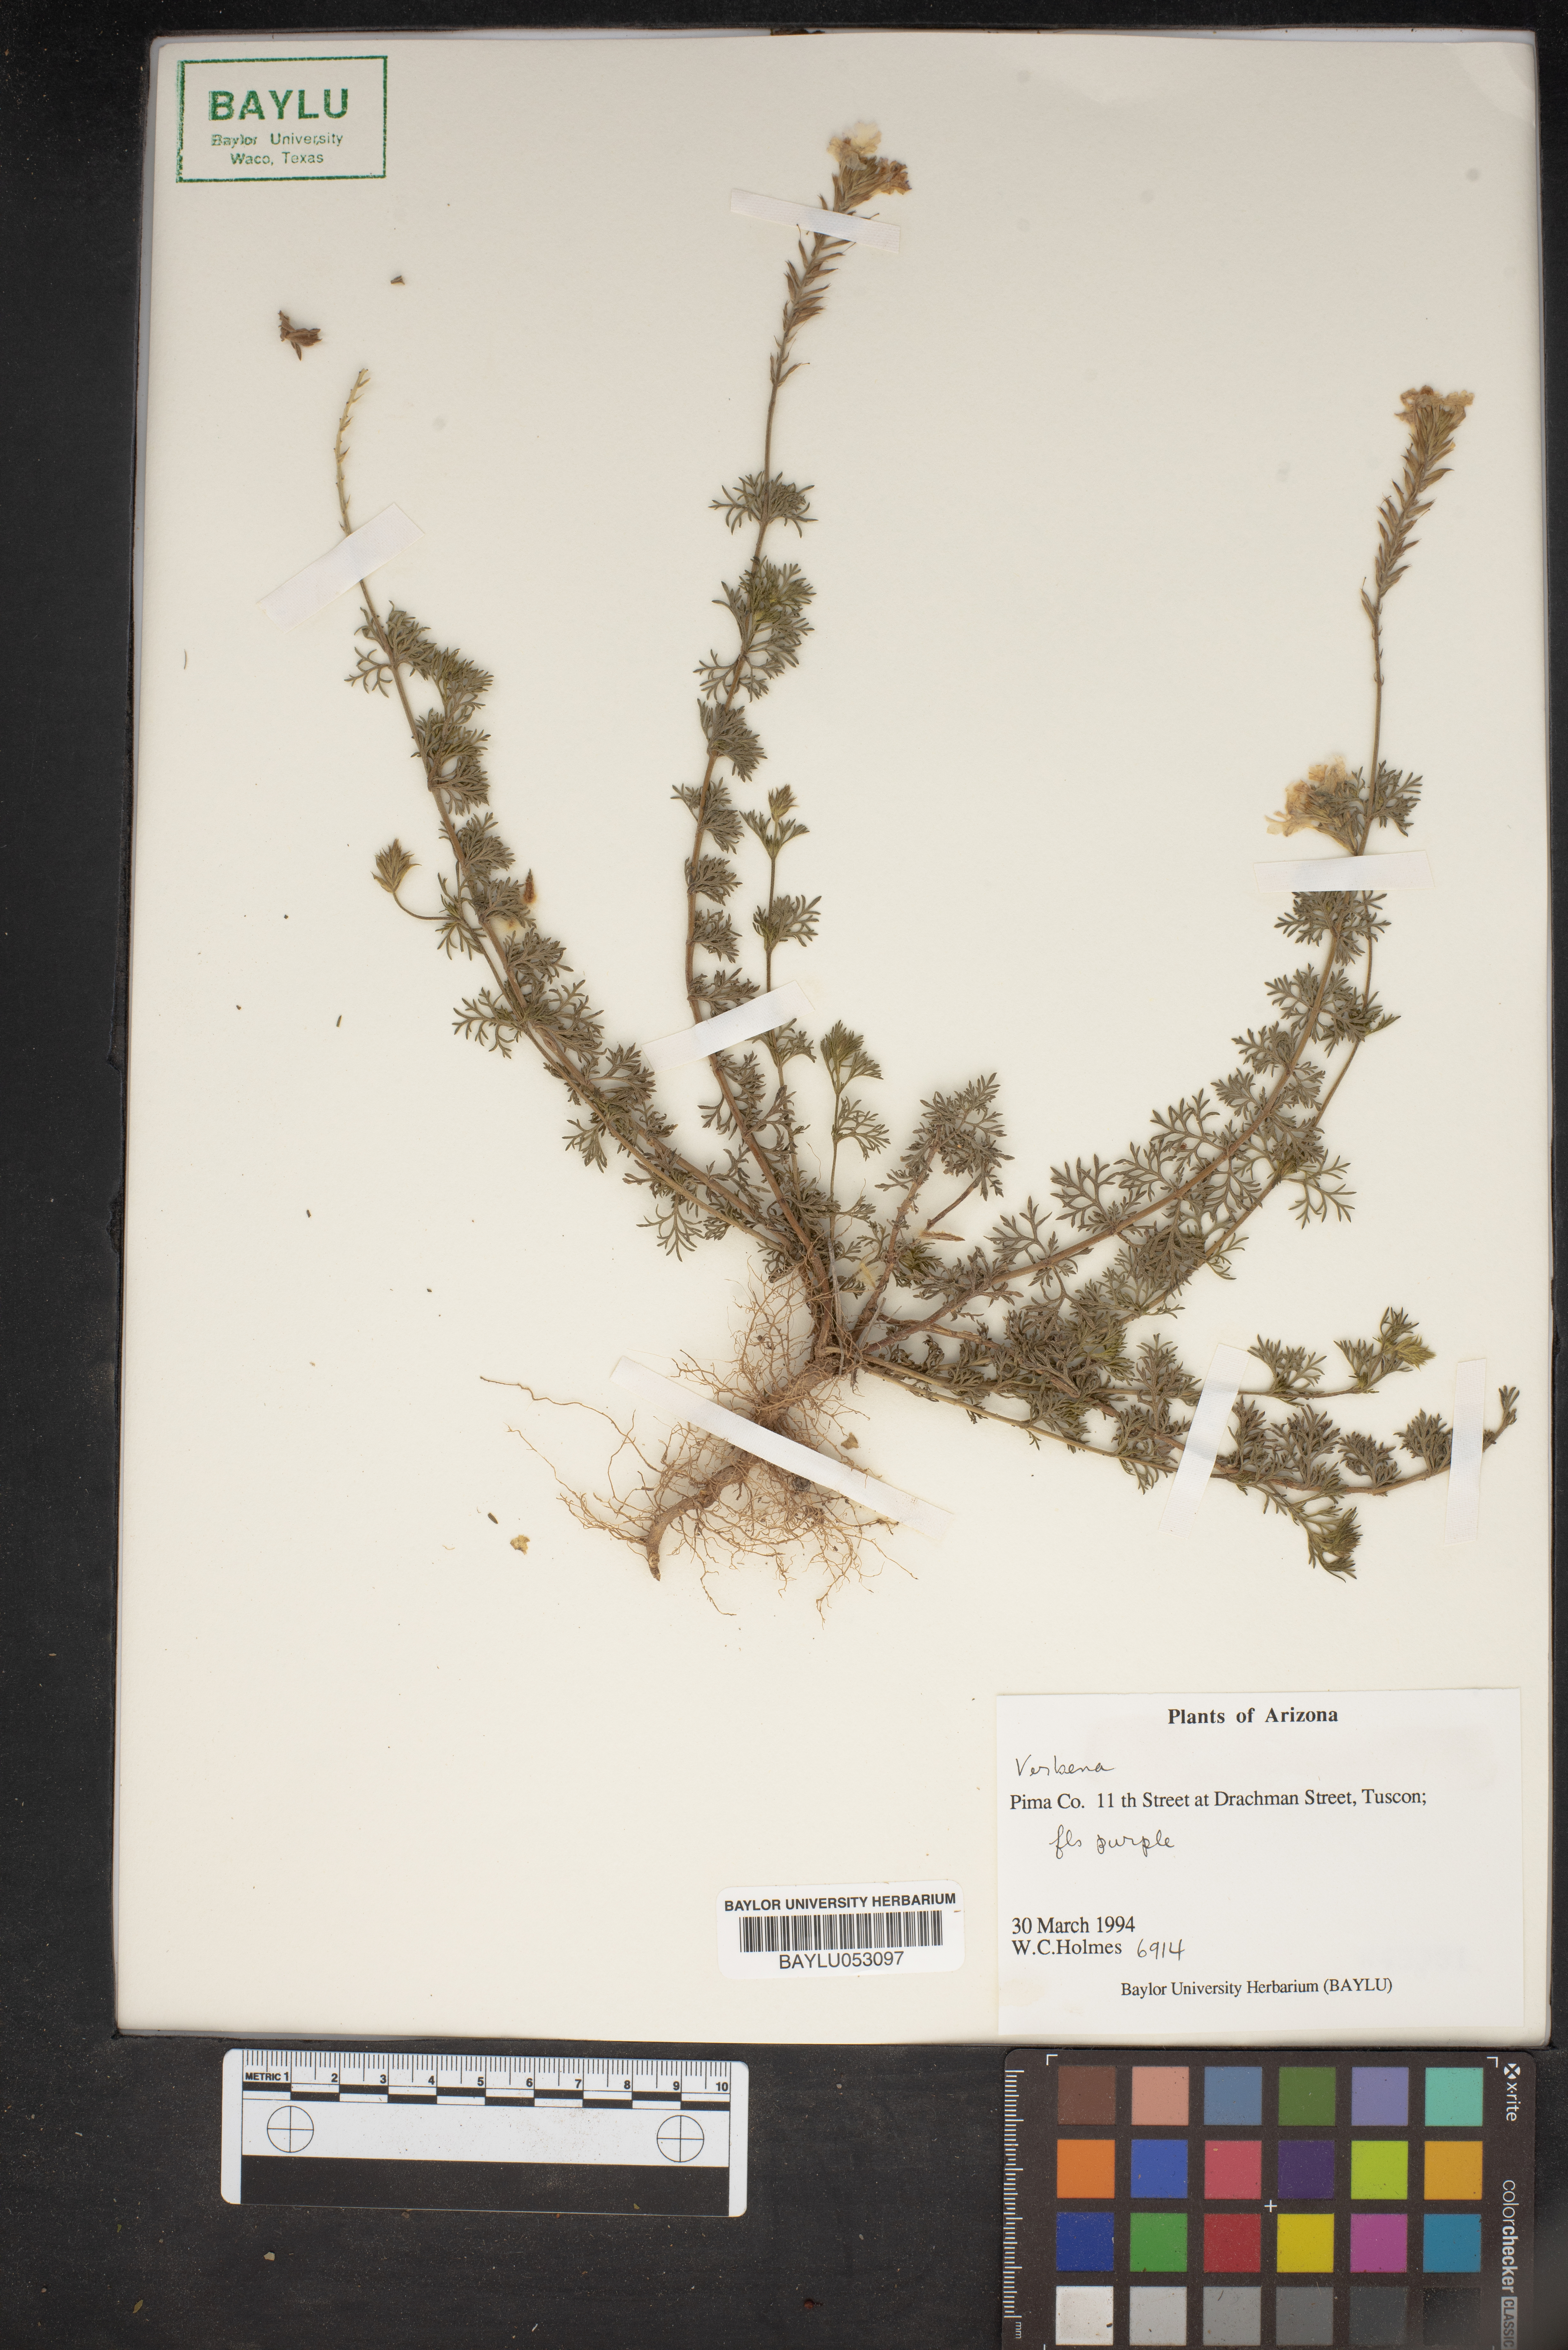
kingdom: Plantae
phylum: Tracheophyta
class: Magnoliopsida
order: Lamiales
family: Verbenaceae
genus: Verbena
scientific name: Verbena
